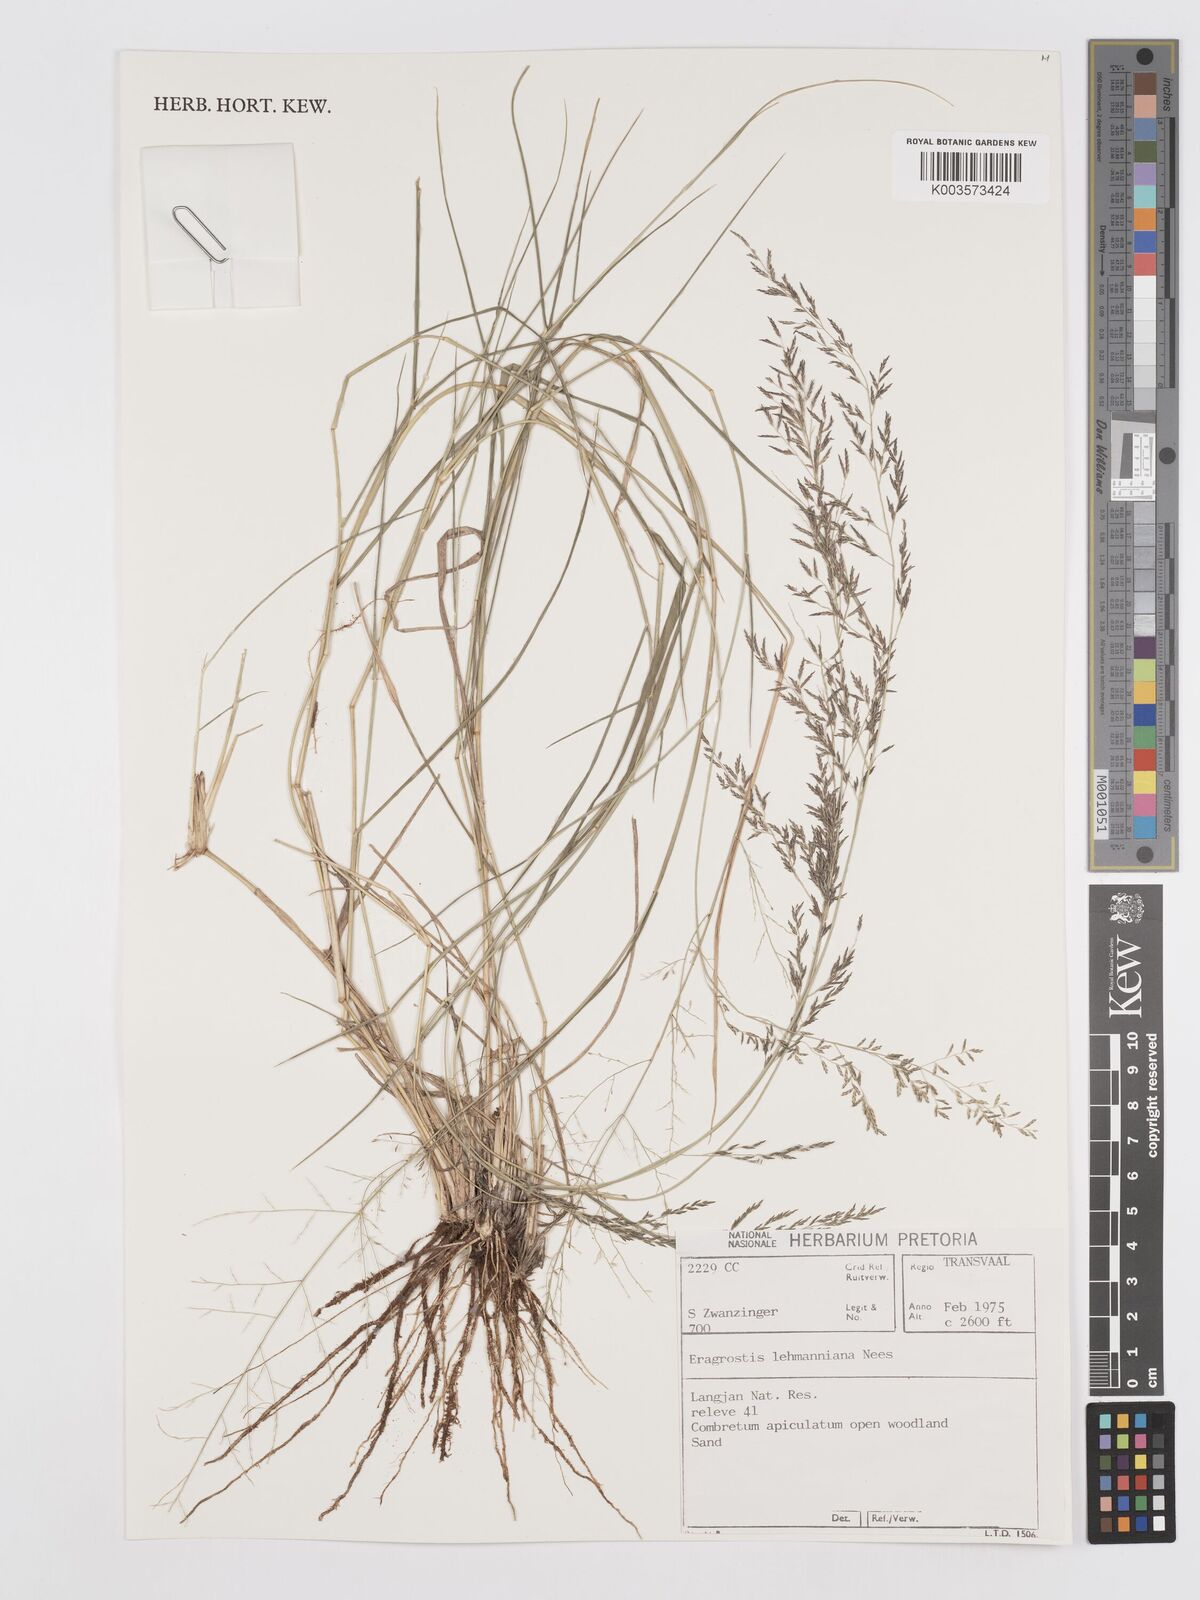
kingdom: Plantae
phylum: Tracheophyta
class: Liliopsida
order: Poales
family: Poaceae
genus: Eragrostis
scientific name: Eragrostis lehmanniana
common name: Lehmann lovegrass
